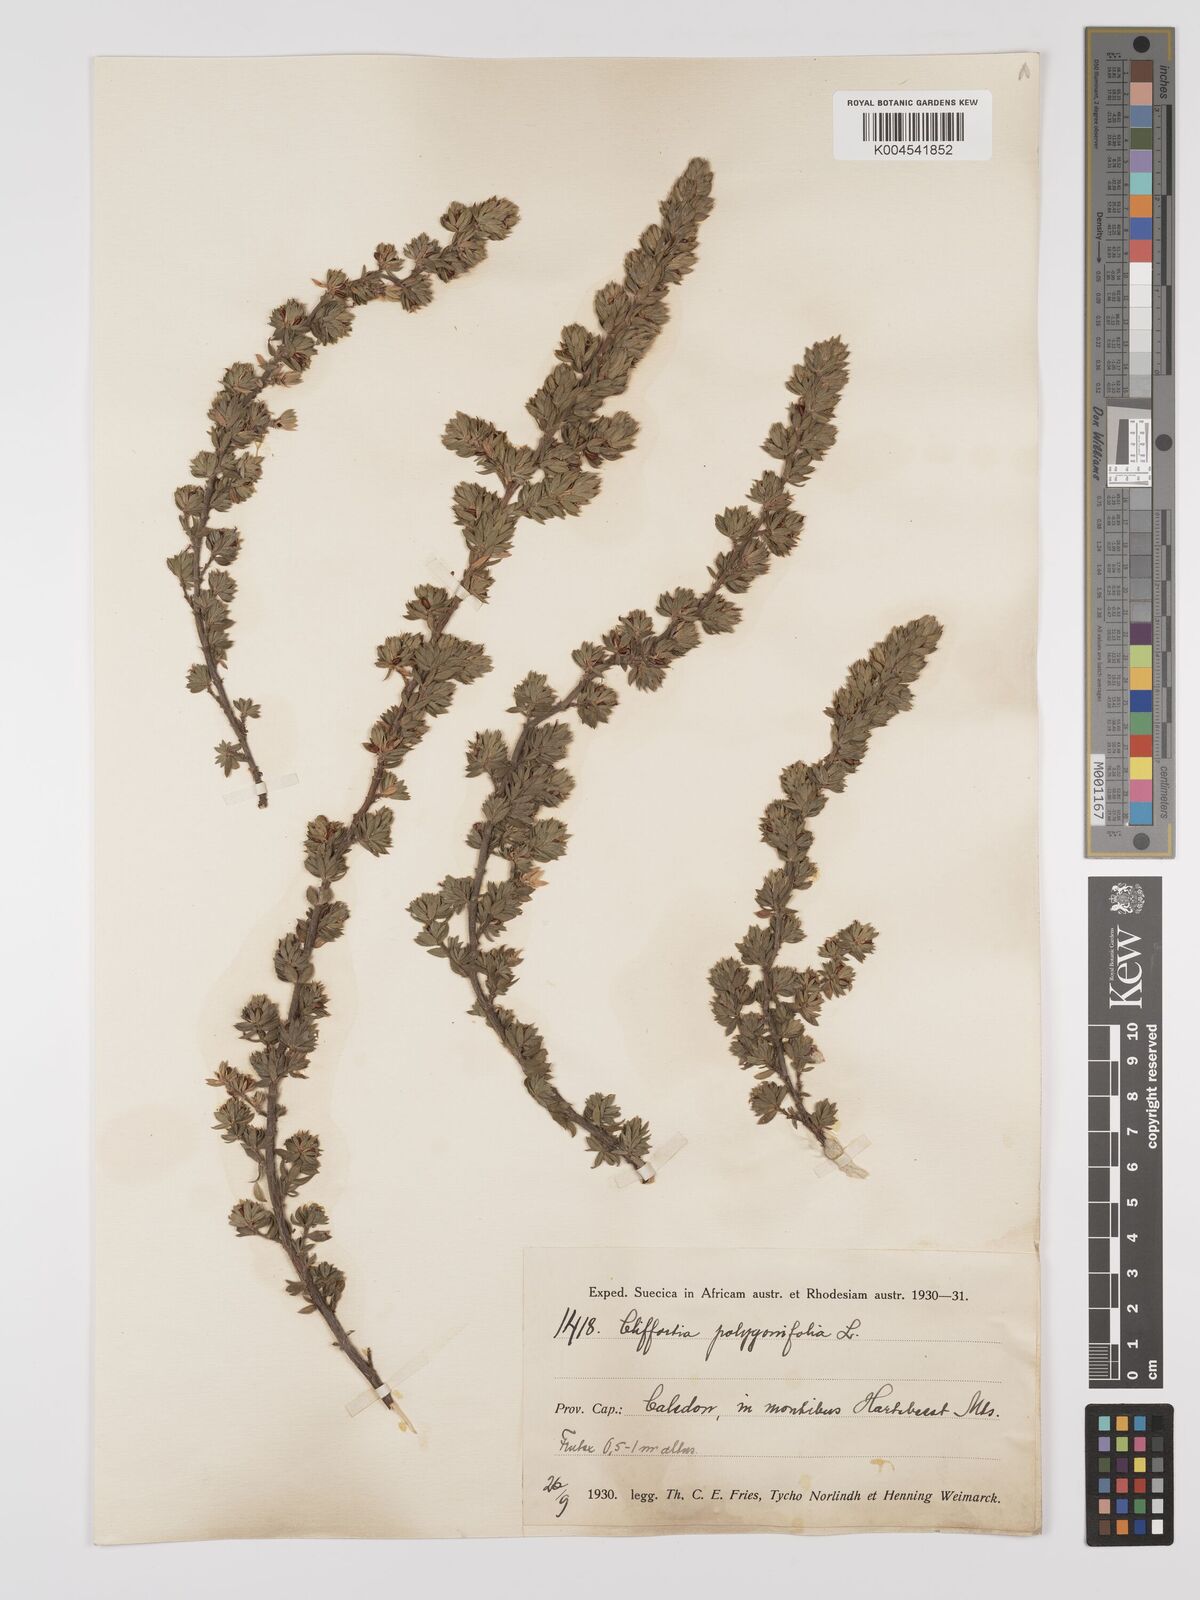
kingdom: Plantae
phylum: Tracheophyta
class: Magnoliopsida
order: Rosales
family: Rosaceae
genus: Cliffortia
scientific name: Cliffortia polygonifolia
